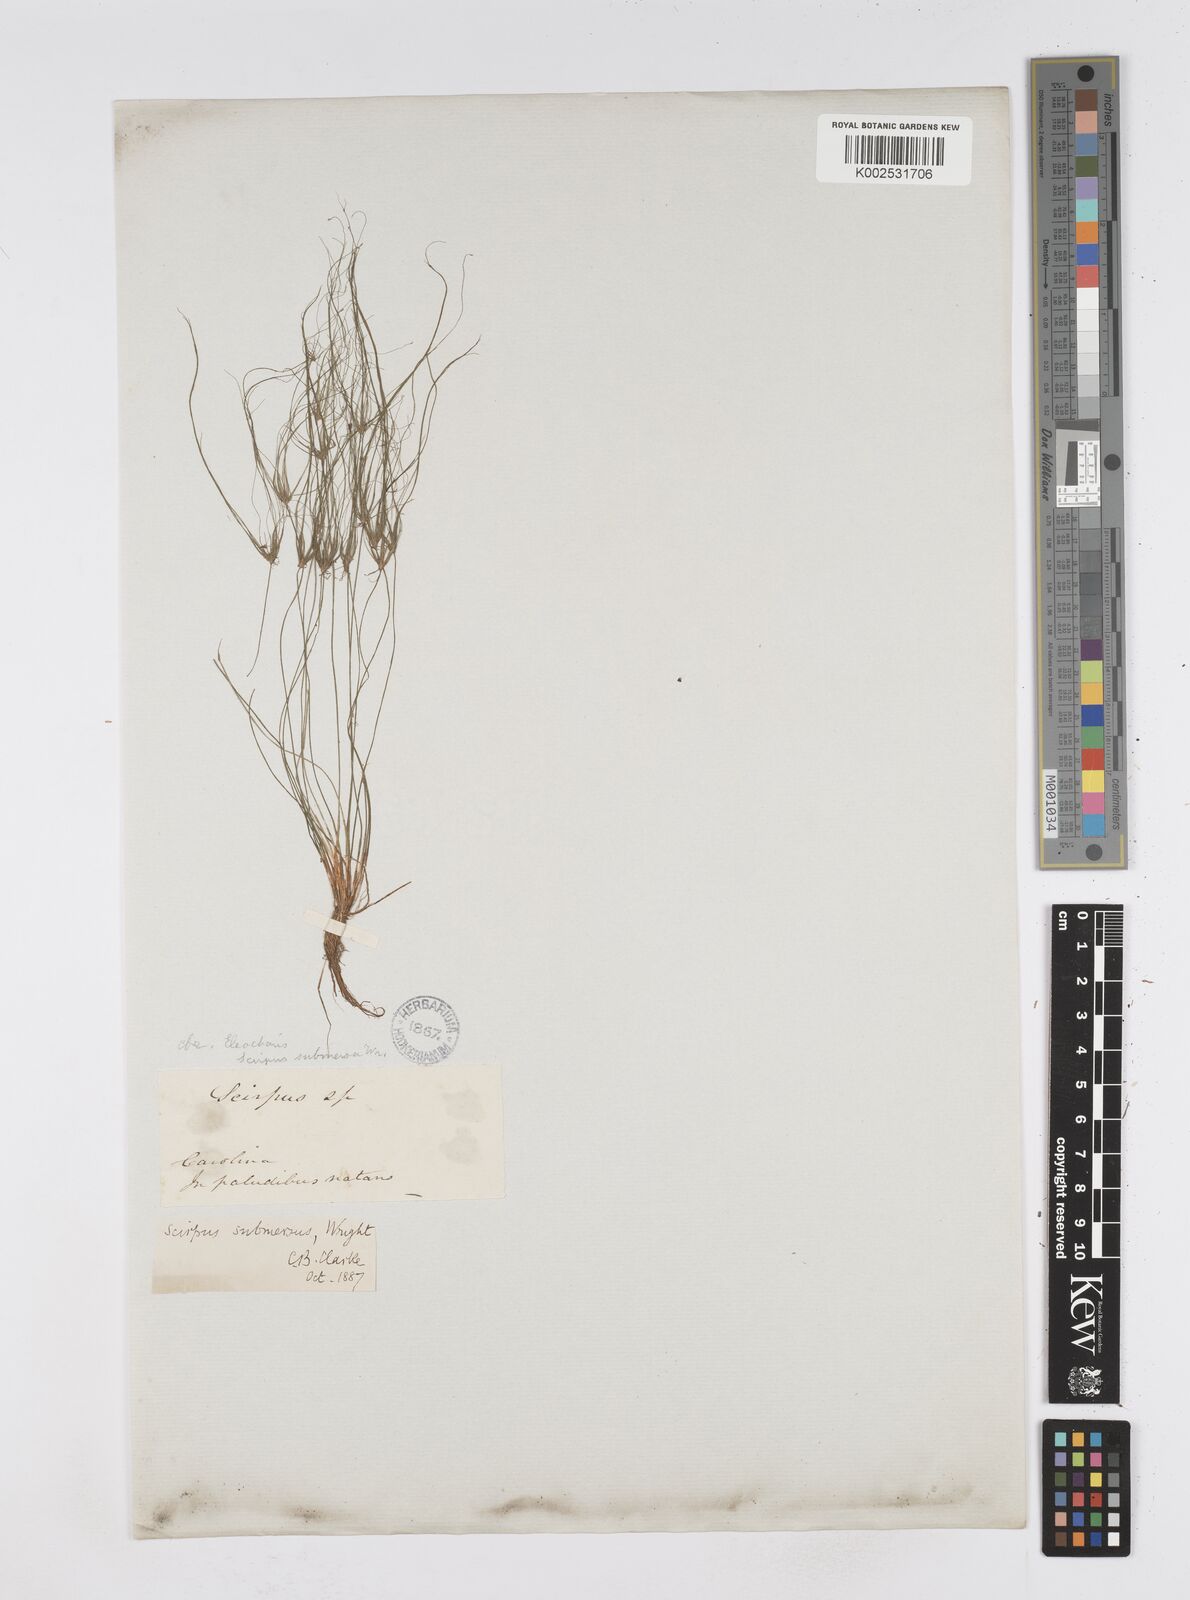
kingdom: Plantae
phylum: Tracheophyta
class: Liliopsida
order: Poales
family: Cyperaceae
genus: Eleocharis
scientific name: Eleocharis confervoides
